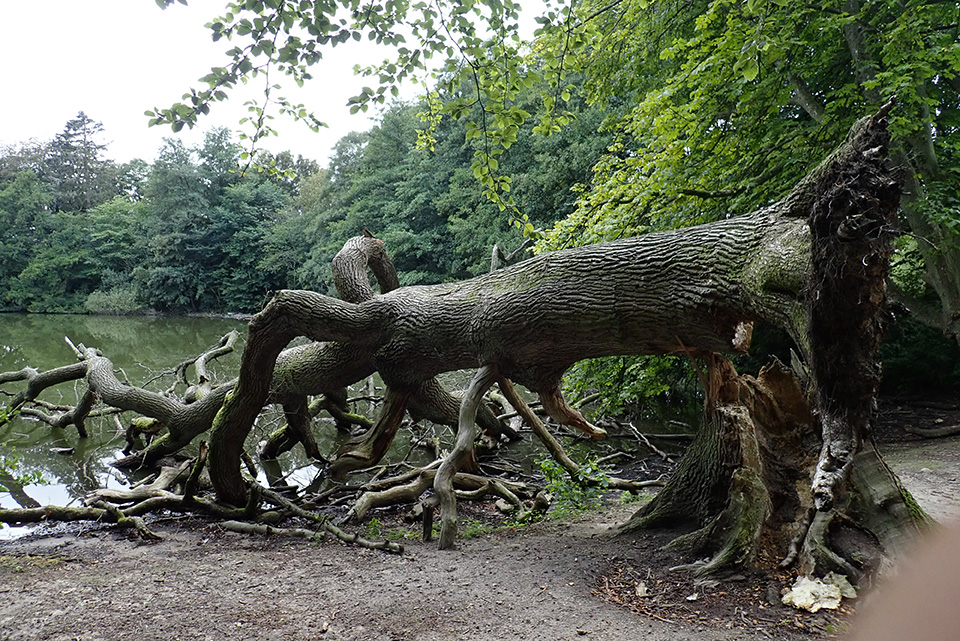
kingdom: Fungi
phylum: Ascomycota
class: Leotiomycetes
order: Phacidiales
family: Phacidiaceae
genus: Bulgaria
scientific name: Bulgaria inquinans
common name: afsmittende topsvamp
